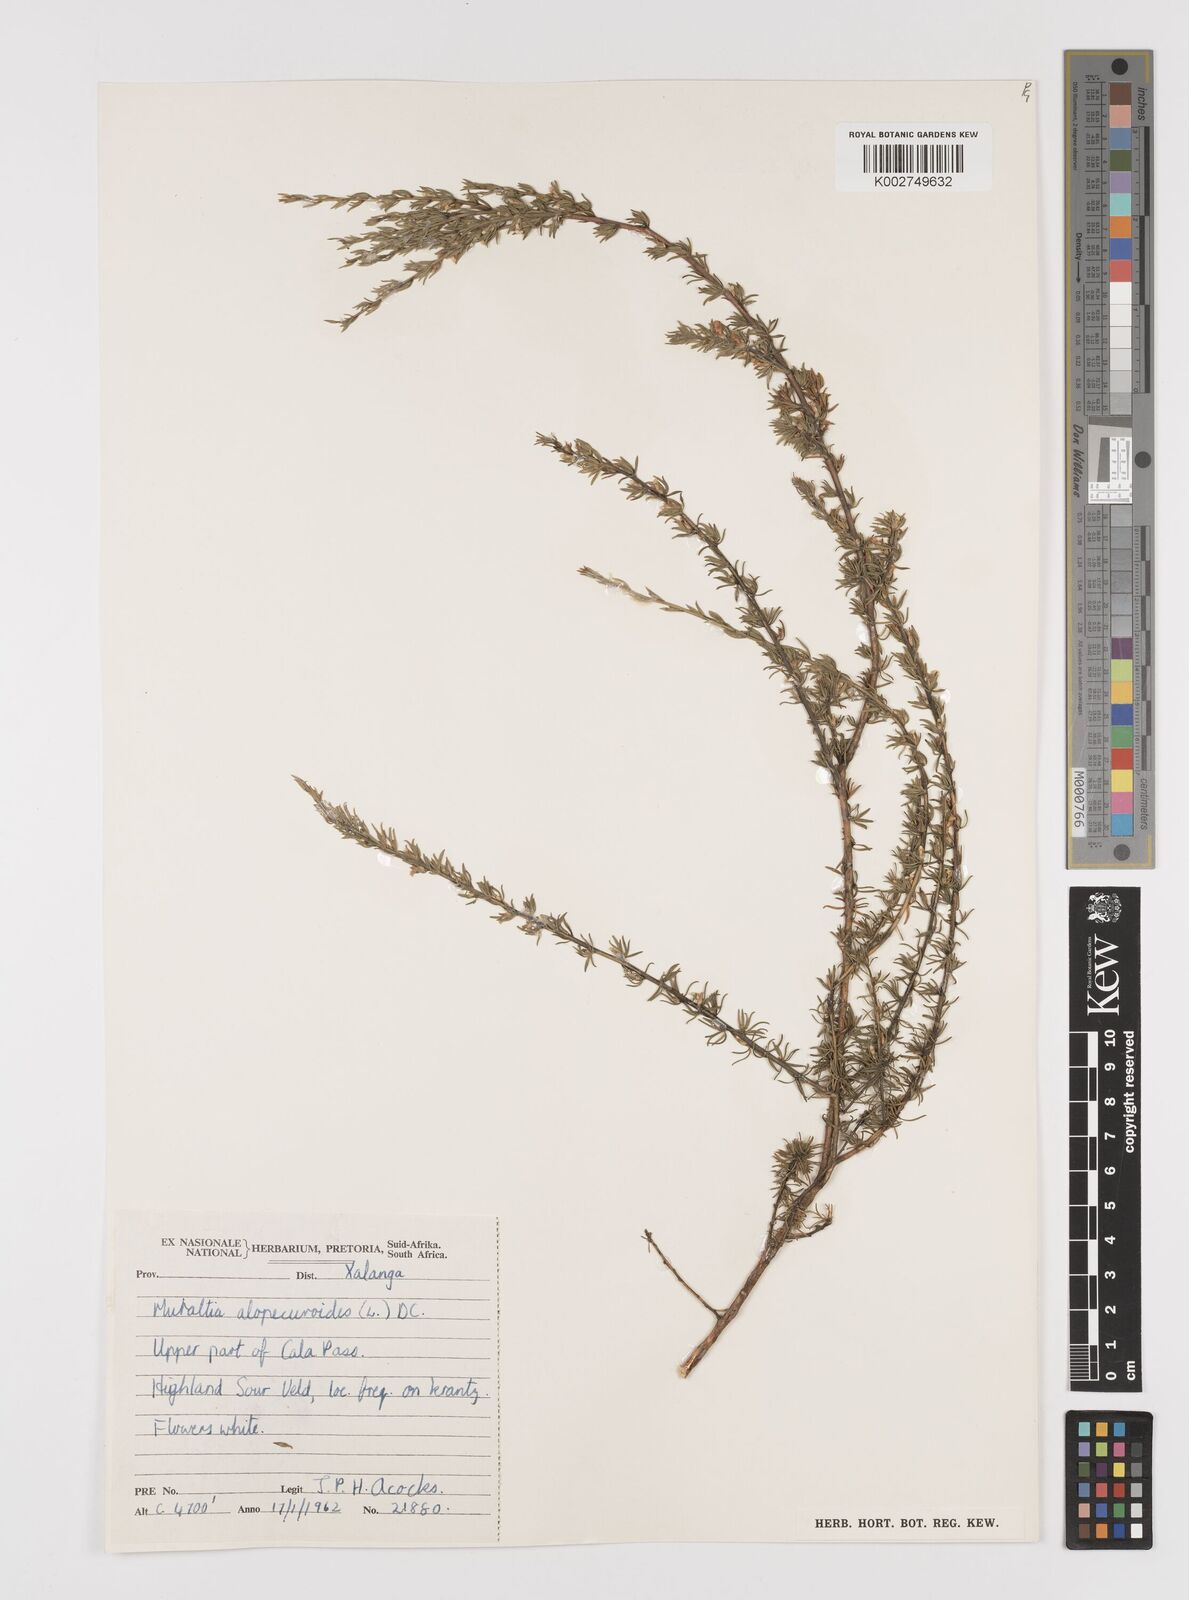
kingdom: Plantae
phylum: Tracheophyta
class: Magnoliopsida
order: Fabales
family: Polygalaceae
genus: Muraltia
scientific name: Muraltia alopecuroides
